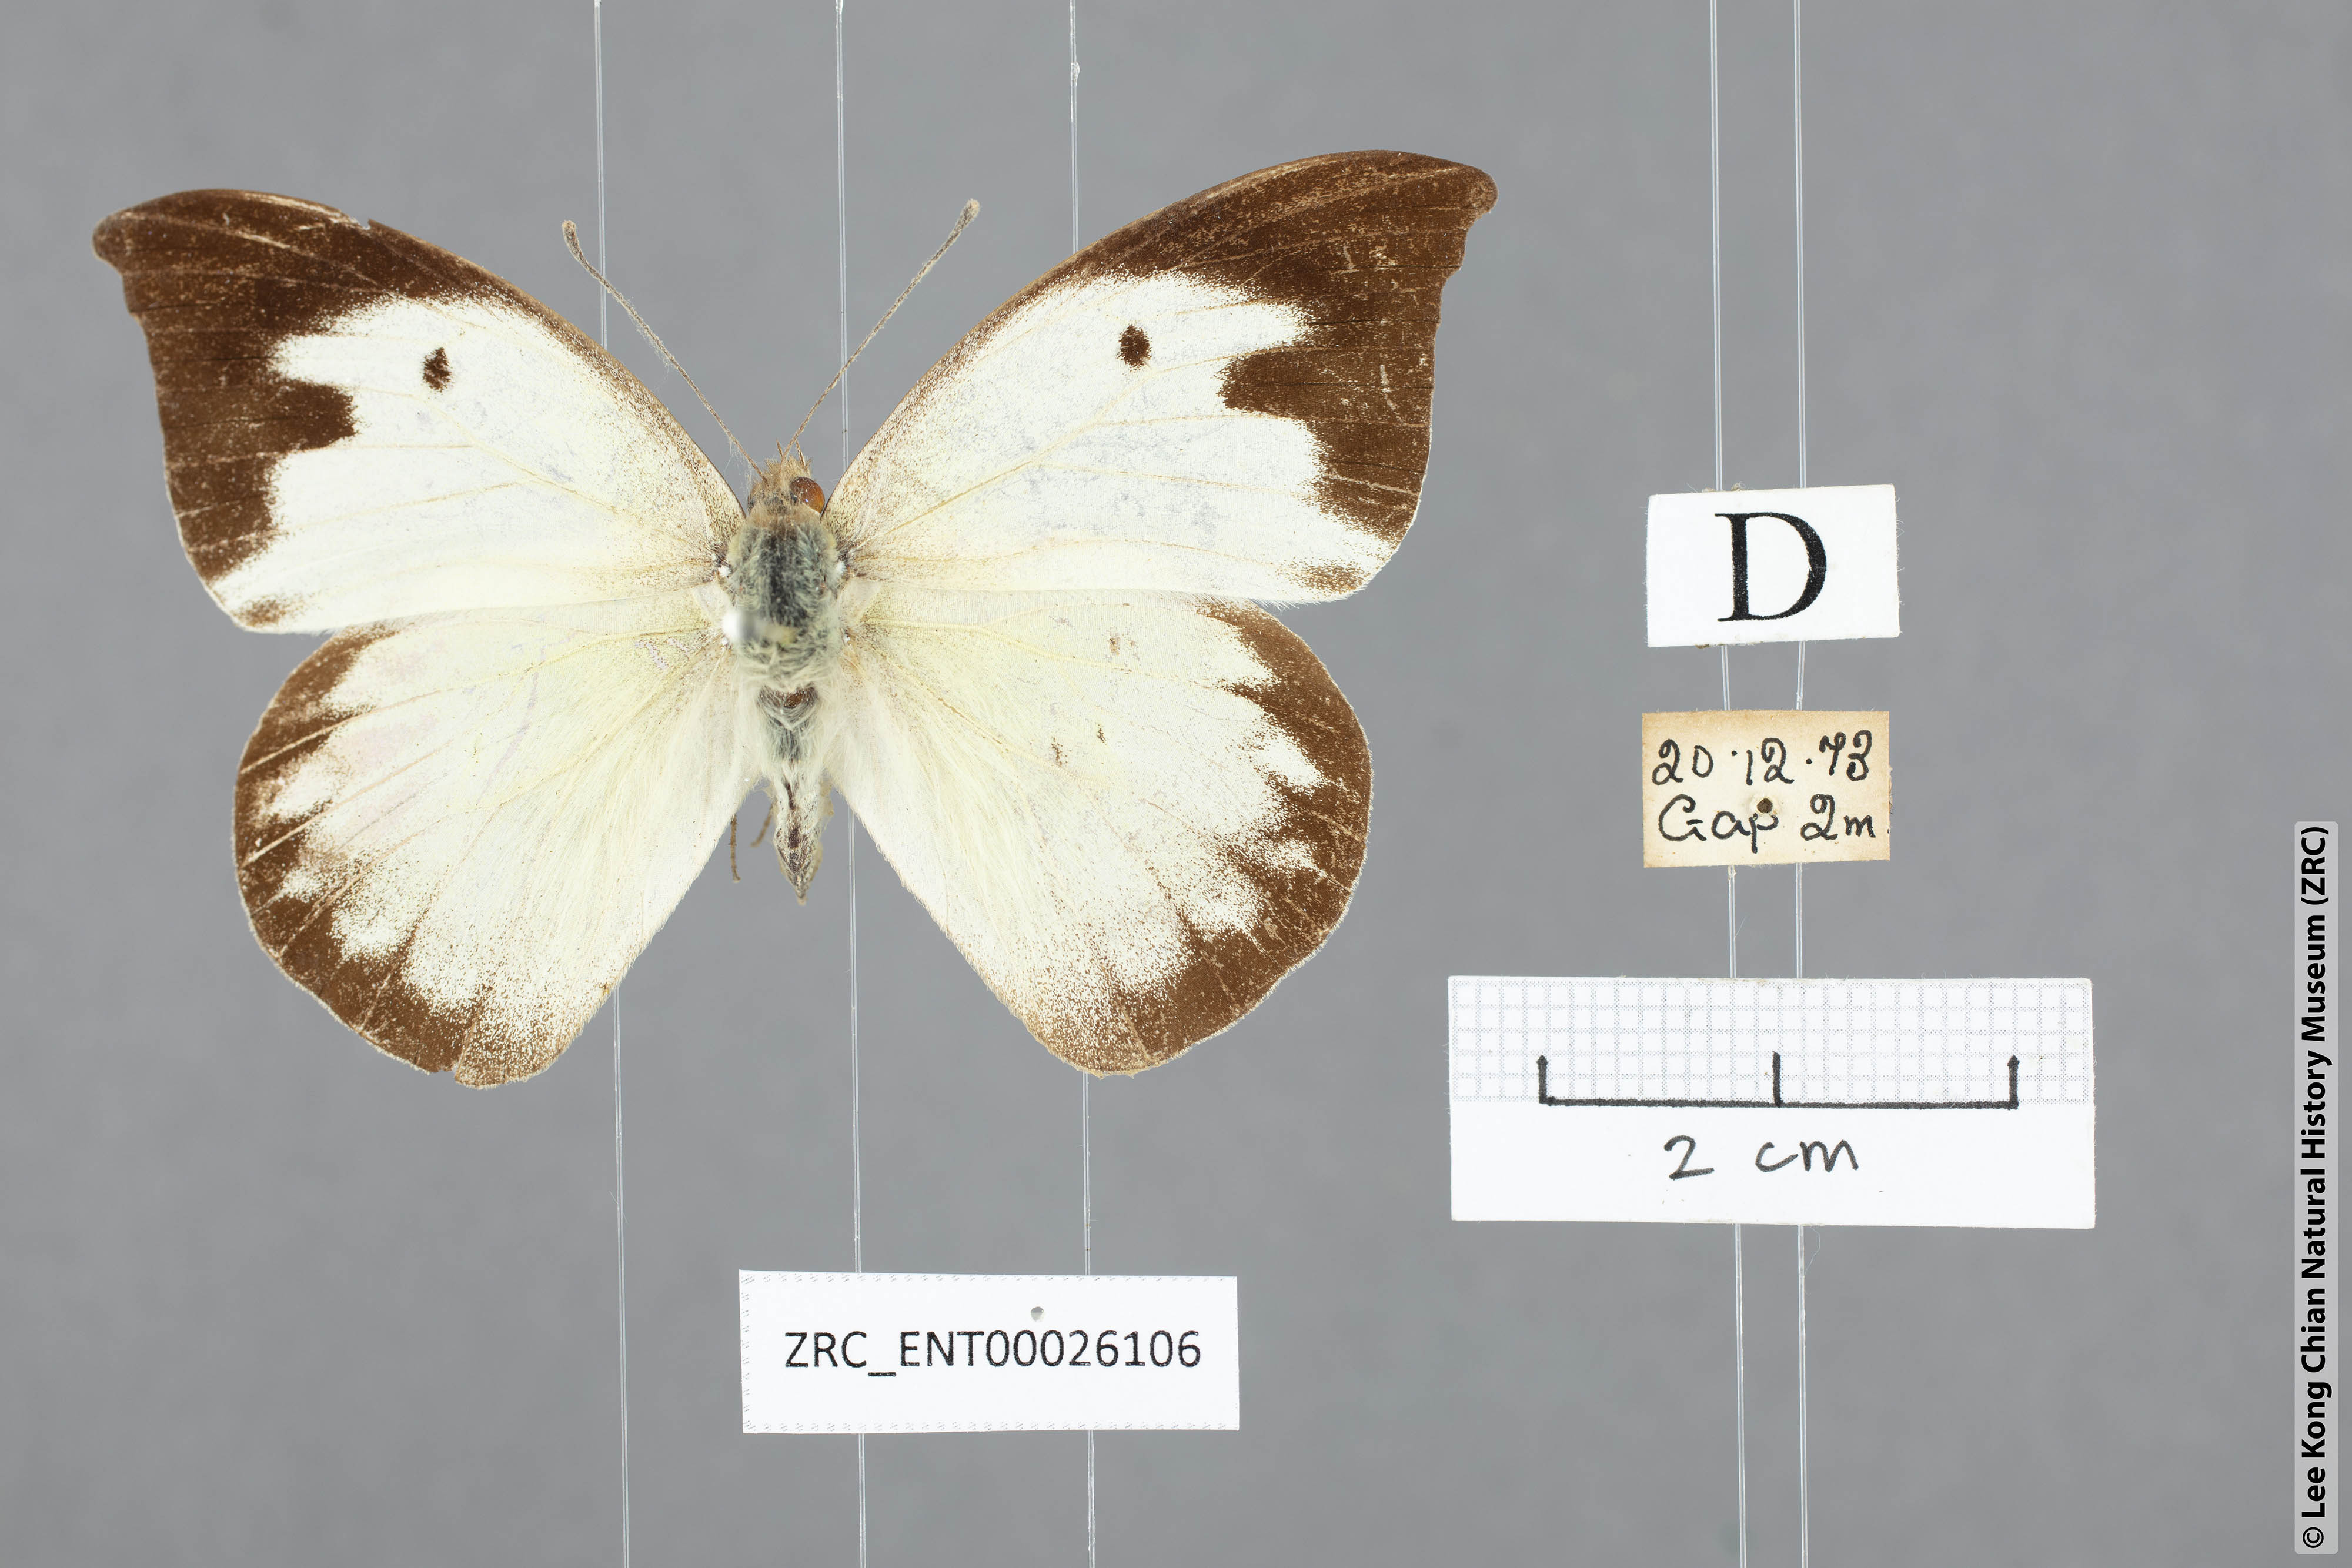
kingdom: Animalia
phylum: Arthropoda
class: Insecta
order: Lepidoptera
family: Pieridae
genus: Appias
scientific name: Appias lalassis
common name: Burmese puffin
